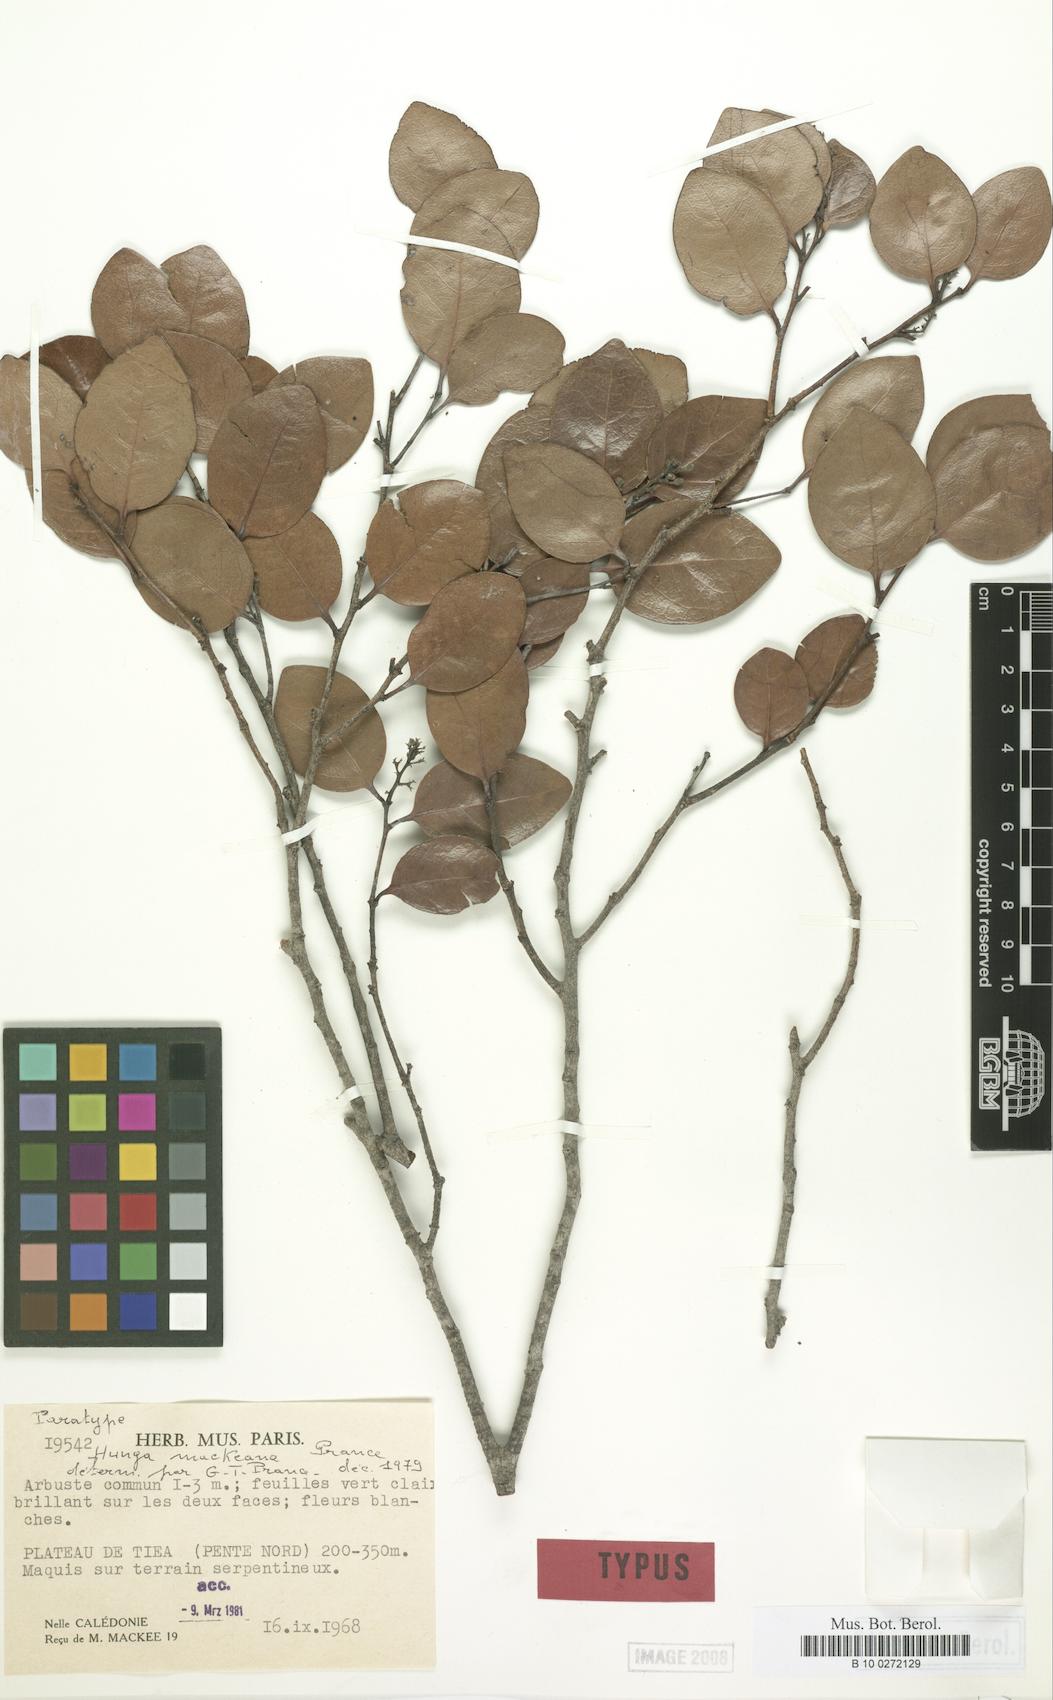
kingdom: Plantae
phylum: Tracheophyta
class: Magnoliopsida
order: Malpighiales
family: Chrysobalanaceae
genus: Hunga
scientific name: Hunga mackeeana
